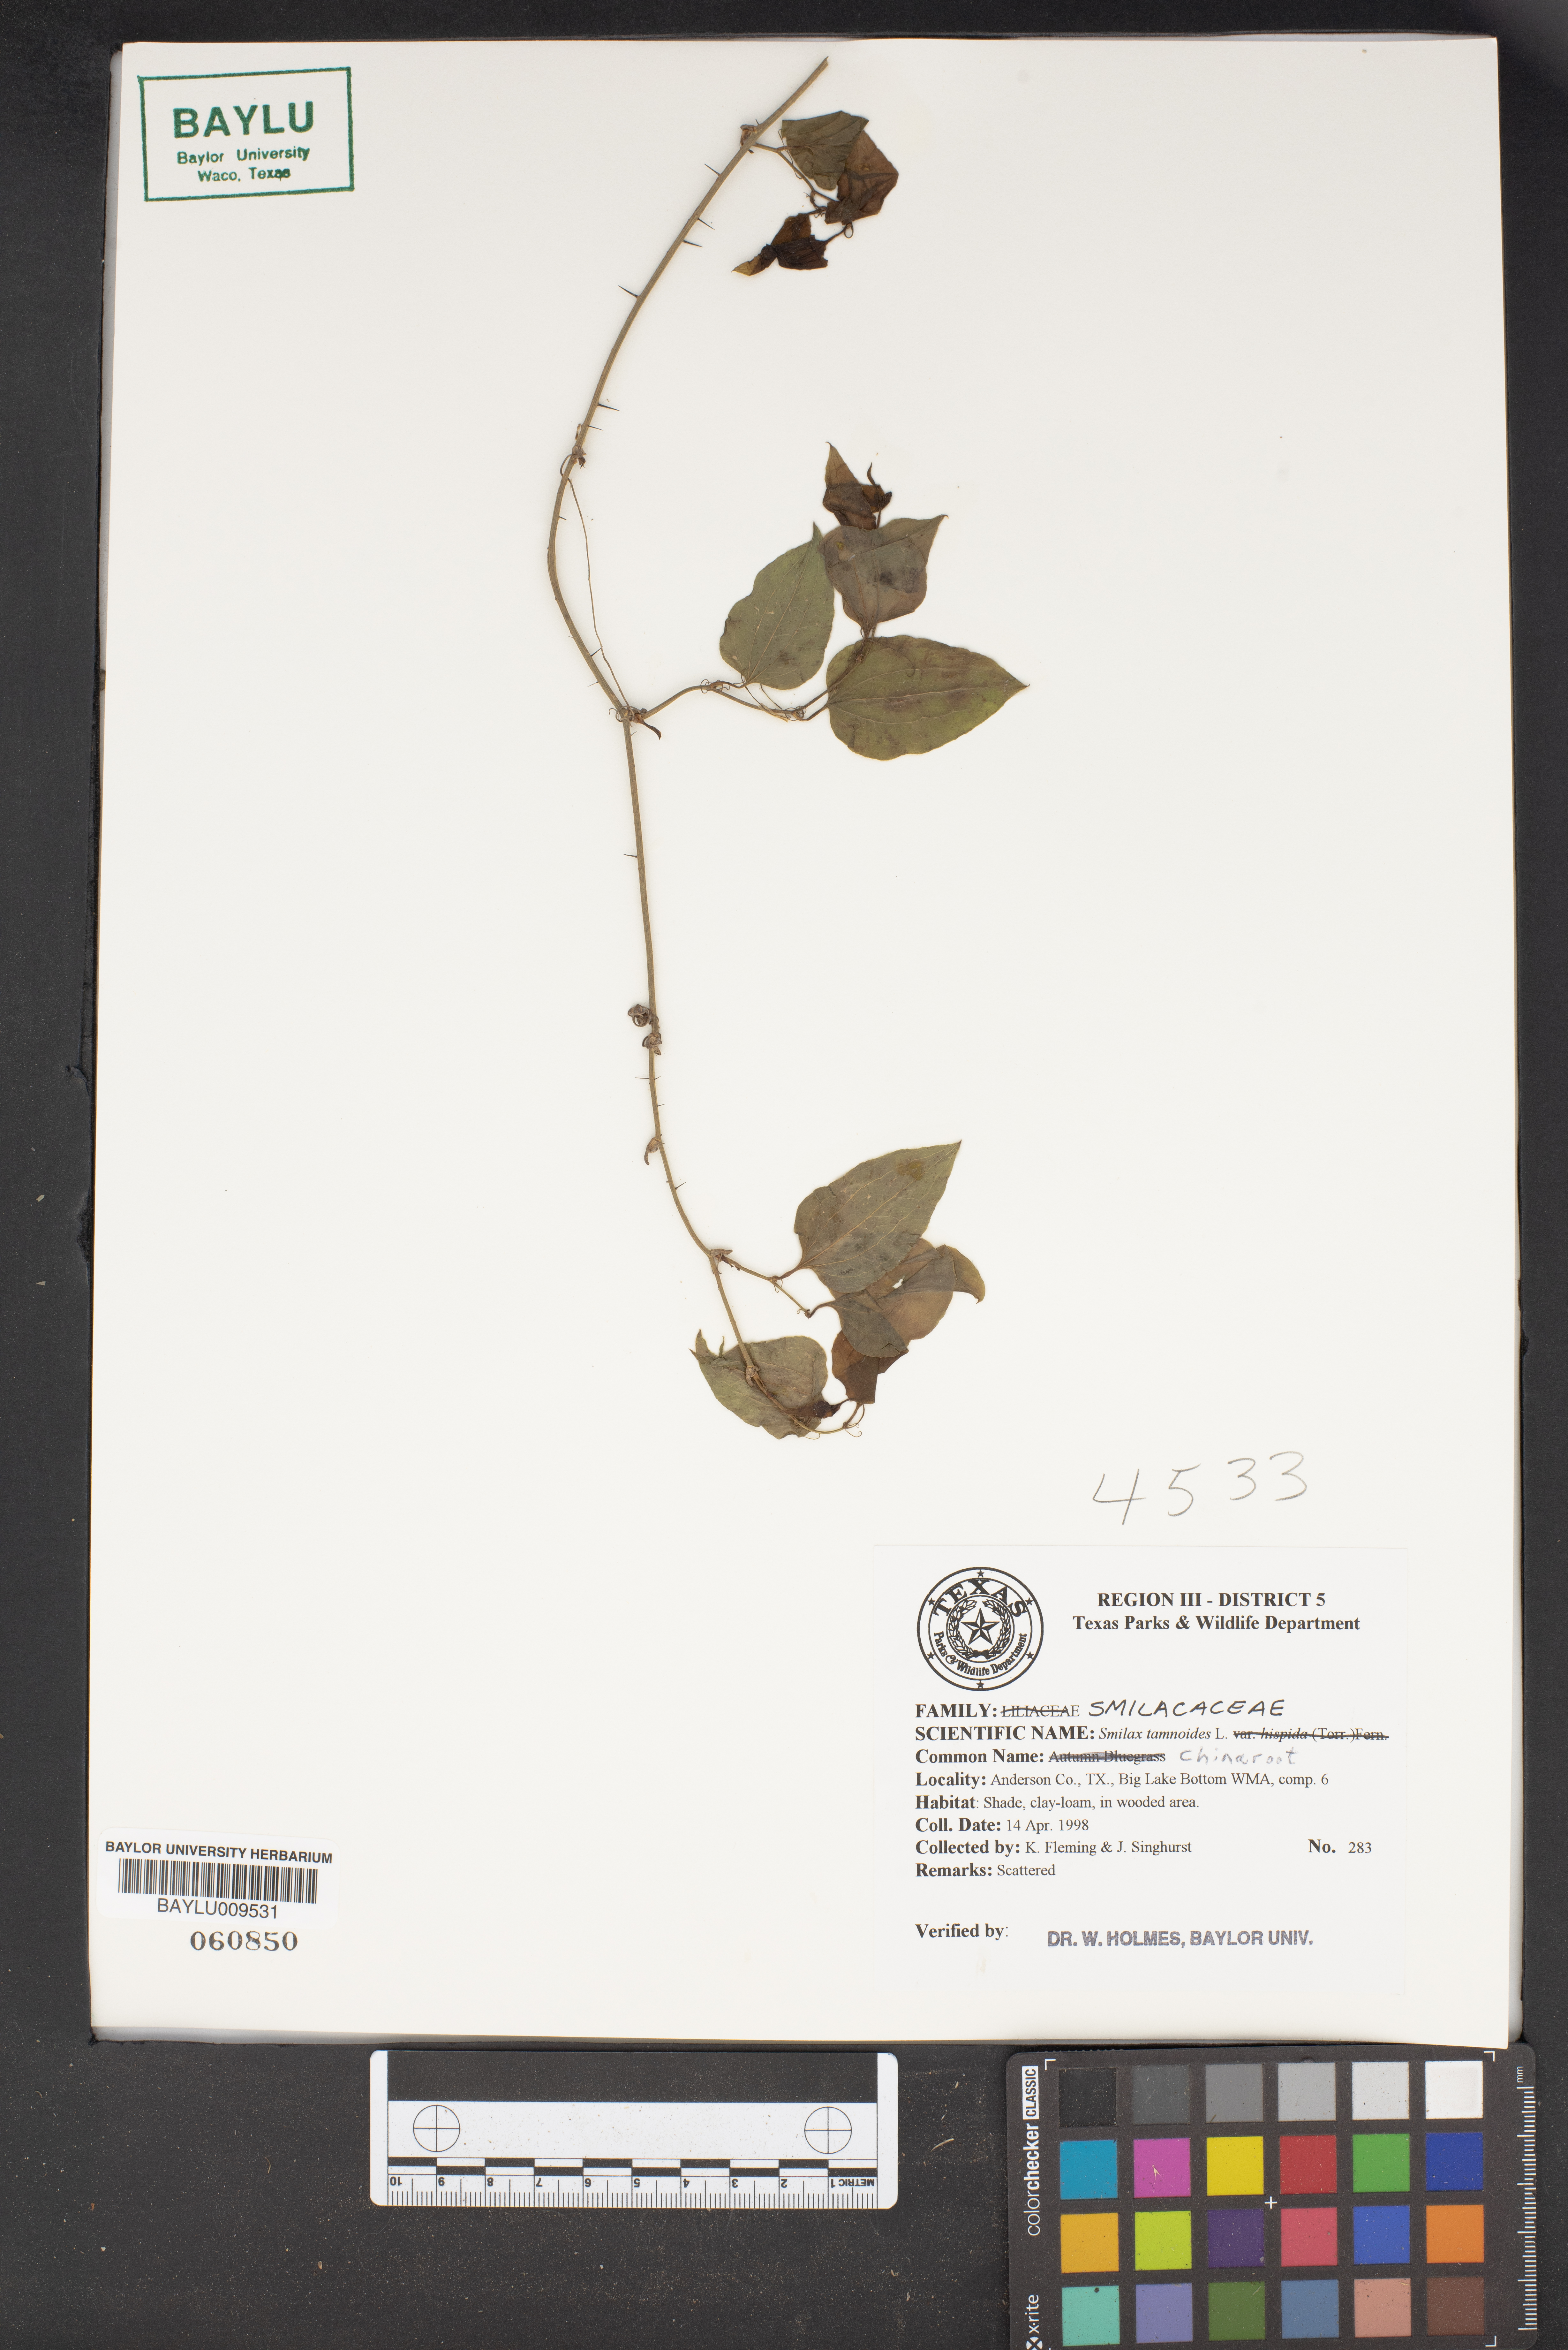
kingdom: Plantae
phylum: Tracheophyta
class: Liliopsida
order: Liliales
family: Smilacaceae
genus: Smilax
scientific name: Smilax tamnoides
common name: Hellfetter
